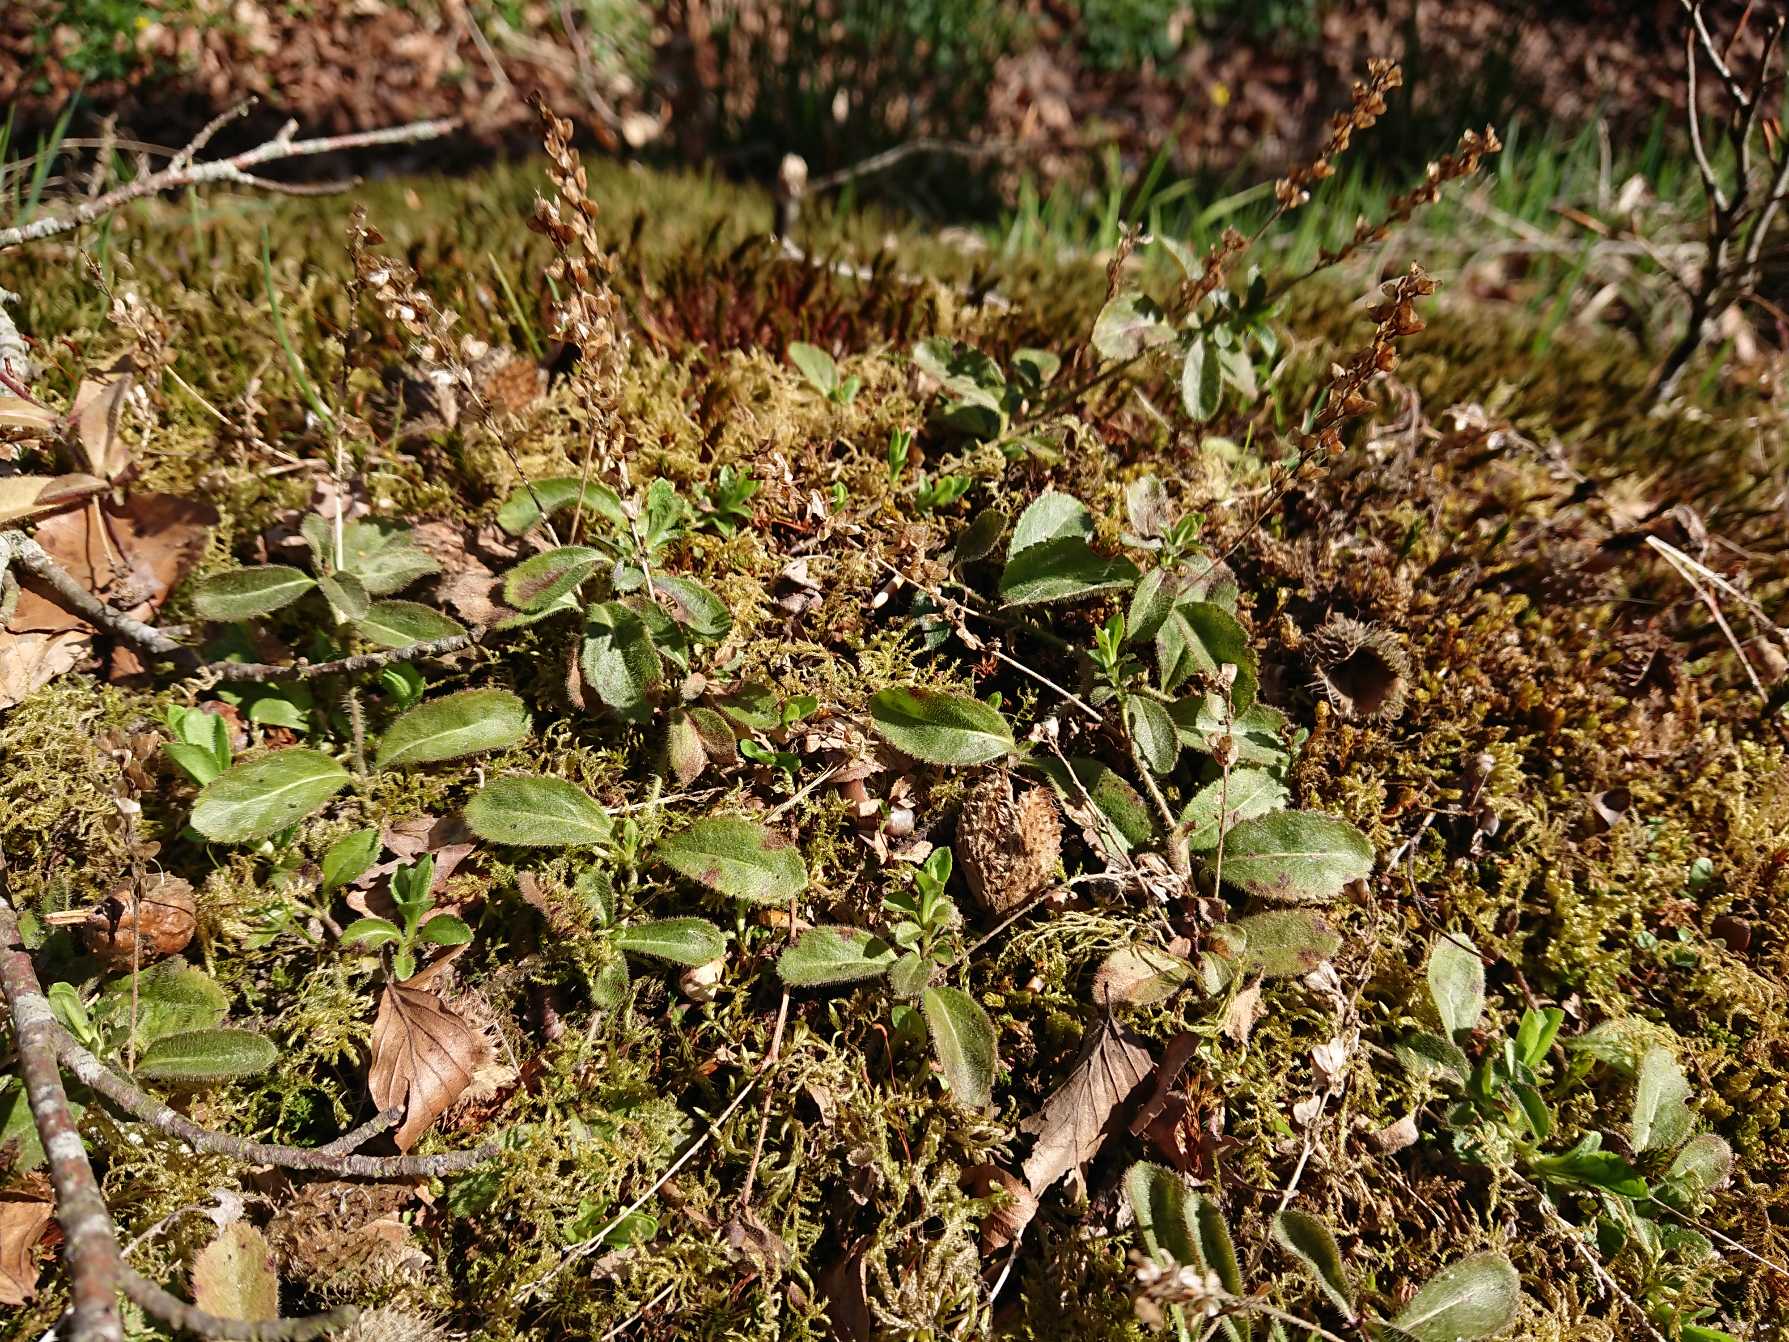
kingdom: Plantae
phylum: Tracheophyta
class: Magnoliopsida
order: Lamiales
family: Plantaginaceae
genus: Veronica
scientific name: Veronica officinalis
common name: Læge-ærenpris
